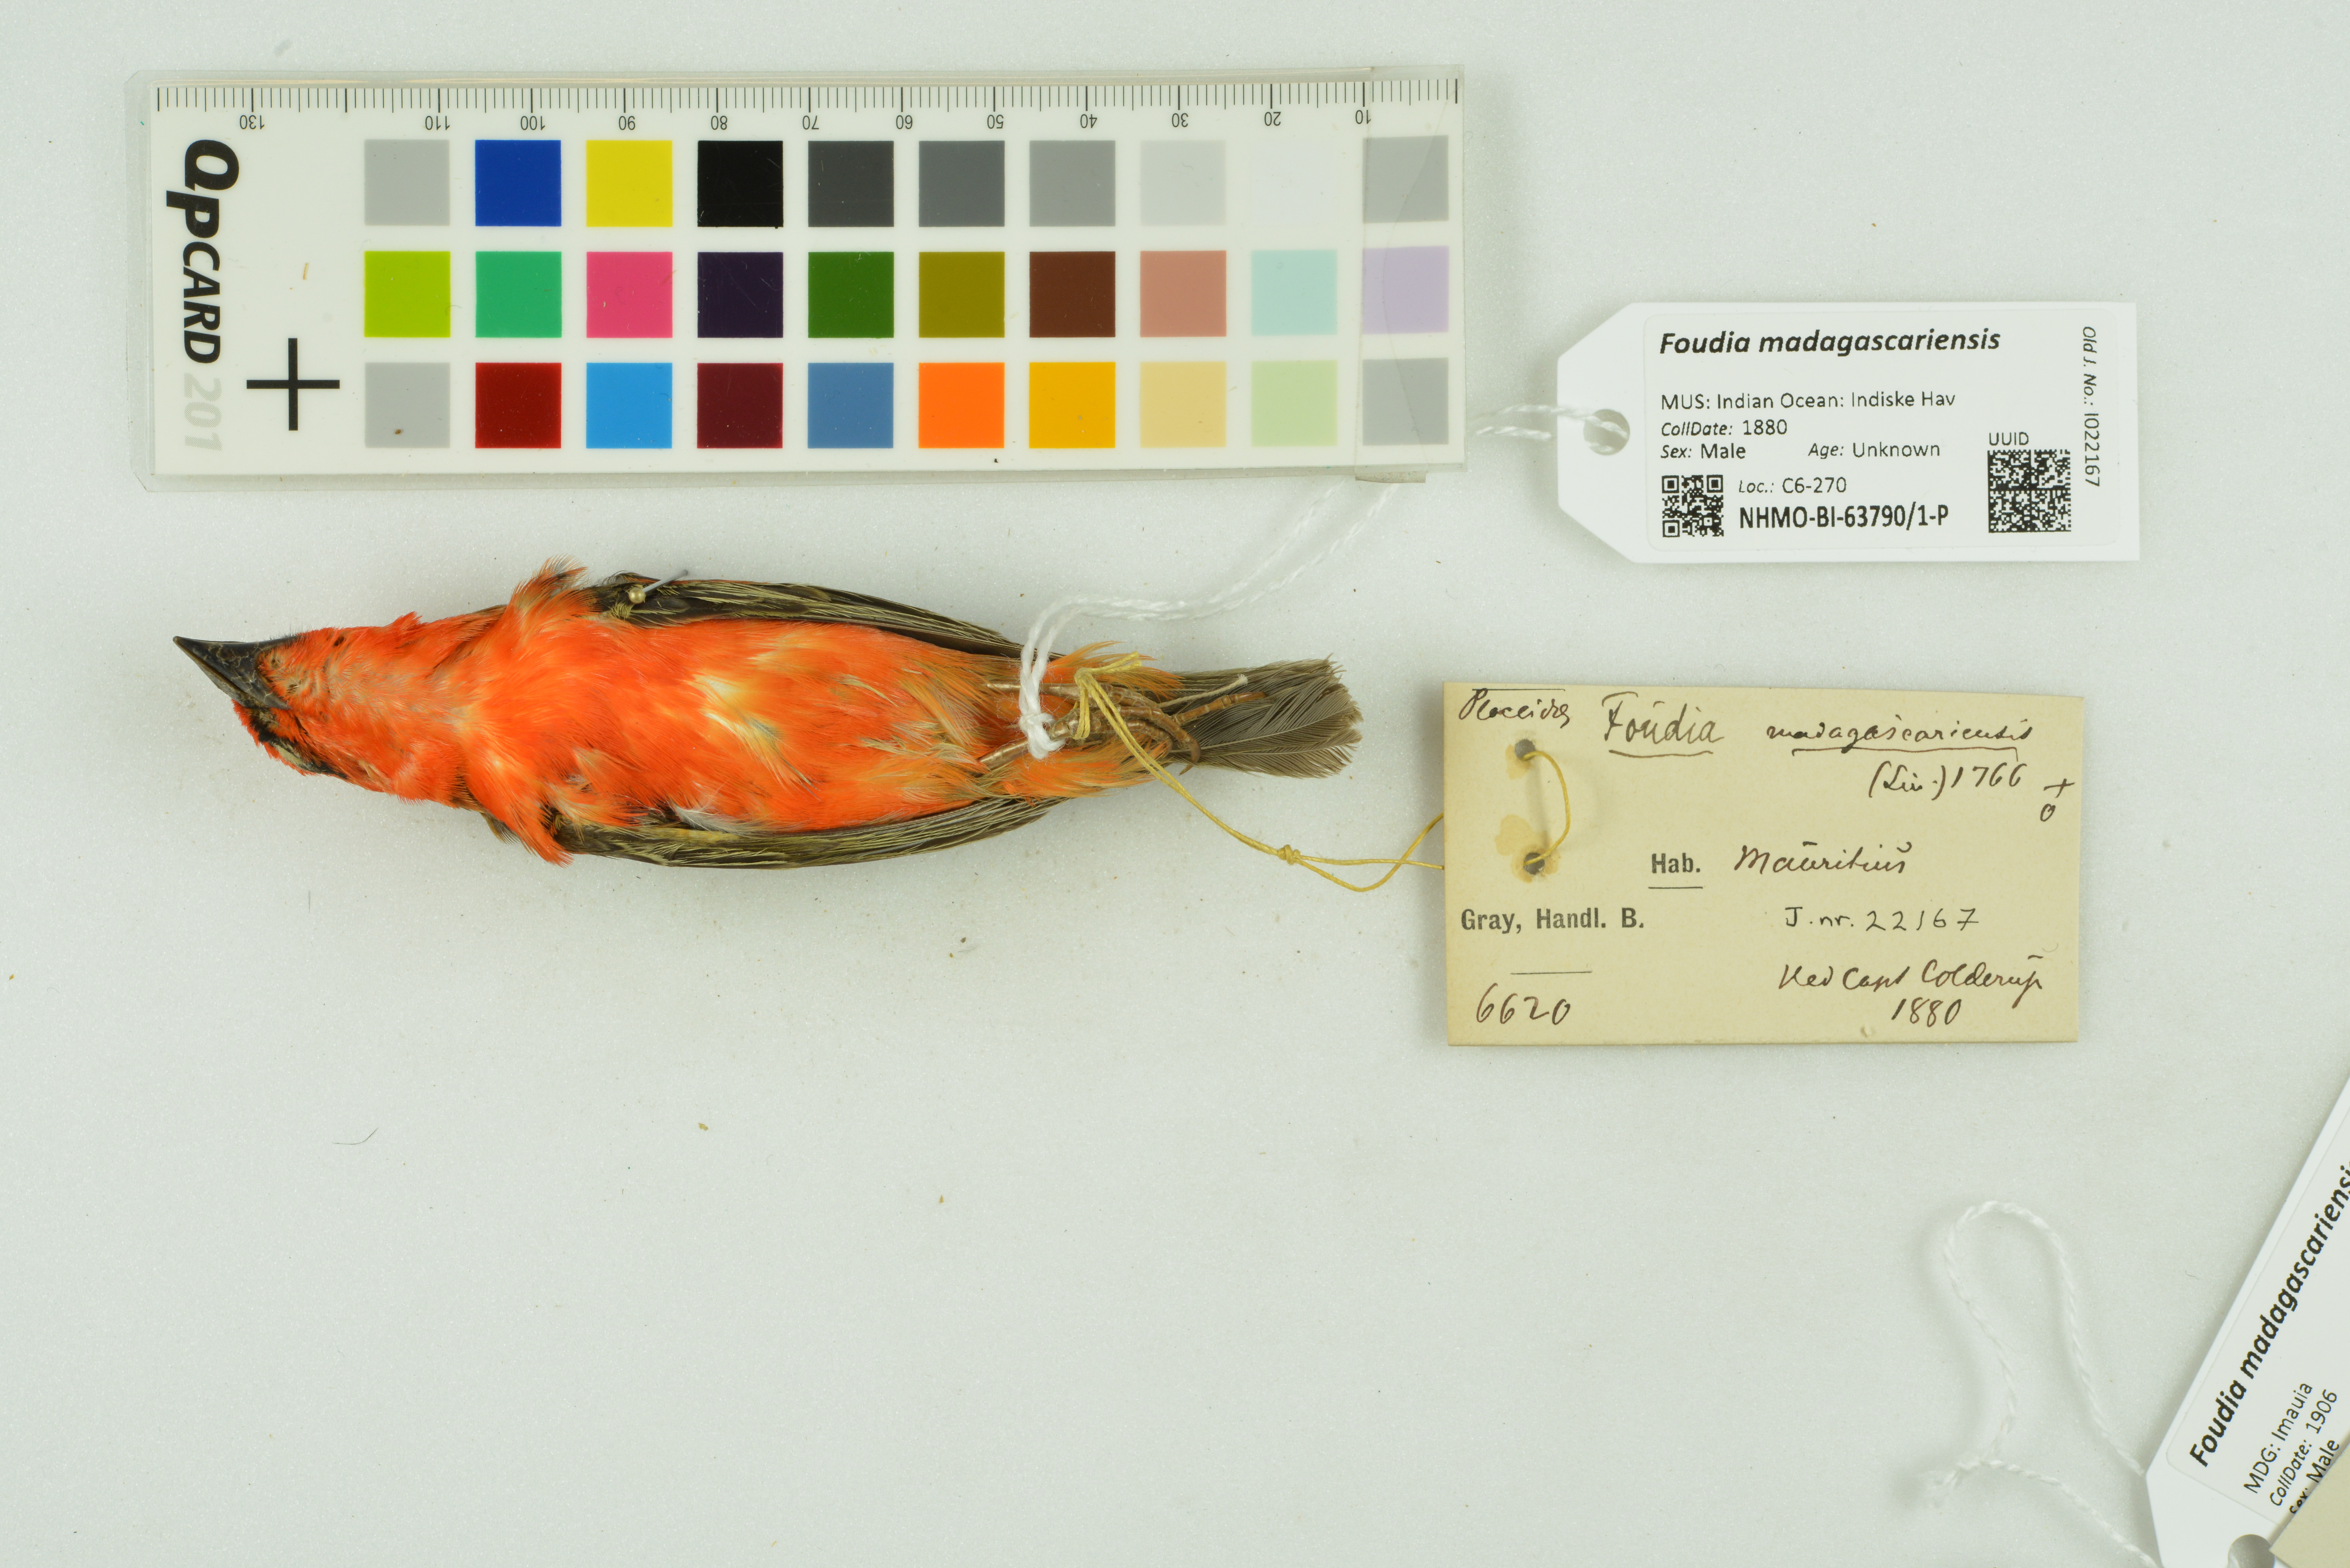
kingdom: Animalia
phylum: Chordata
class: Aves
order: Passeriformes
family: Ploceidae
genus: Foudia
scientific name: Foudia madagascariensis
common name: Red fody
